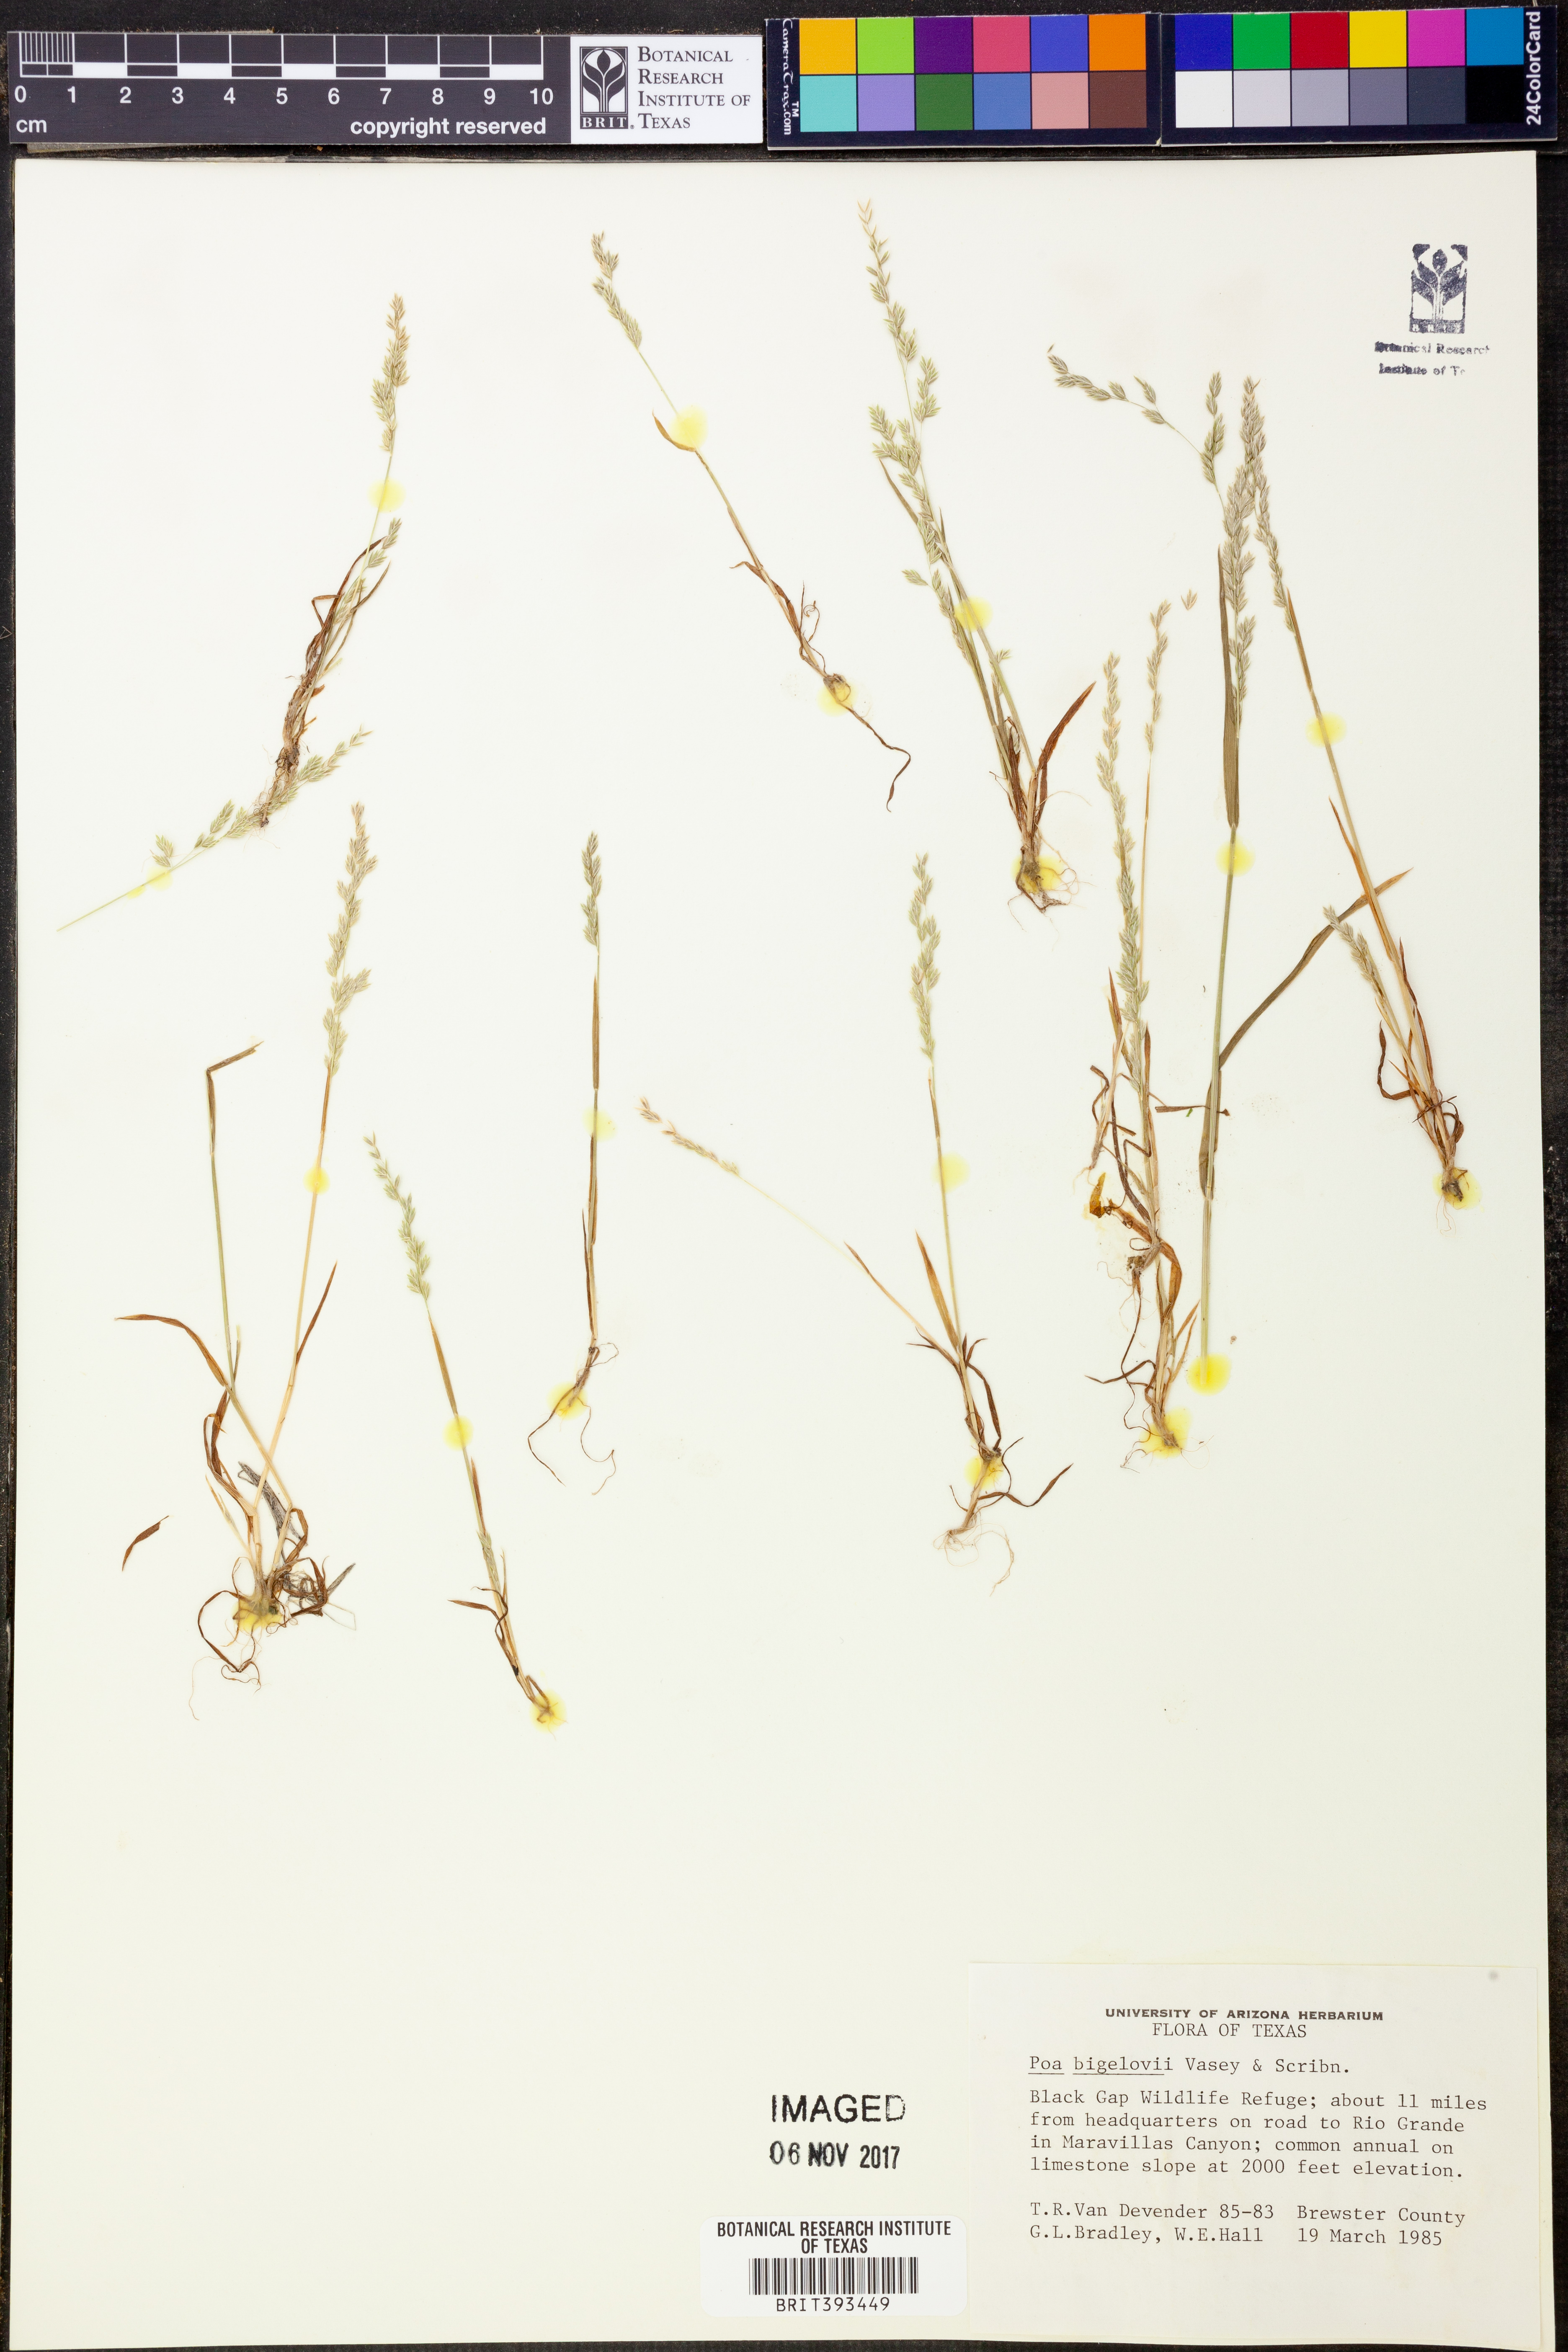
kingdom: Plantae
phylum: Tracheophyta
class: Liliopsida
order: Poales
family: Poaceae
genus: Poa
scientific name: Poa bigelovii
